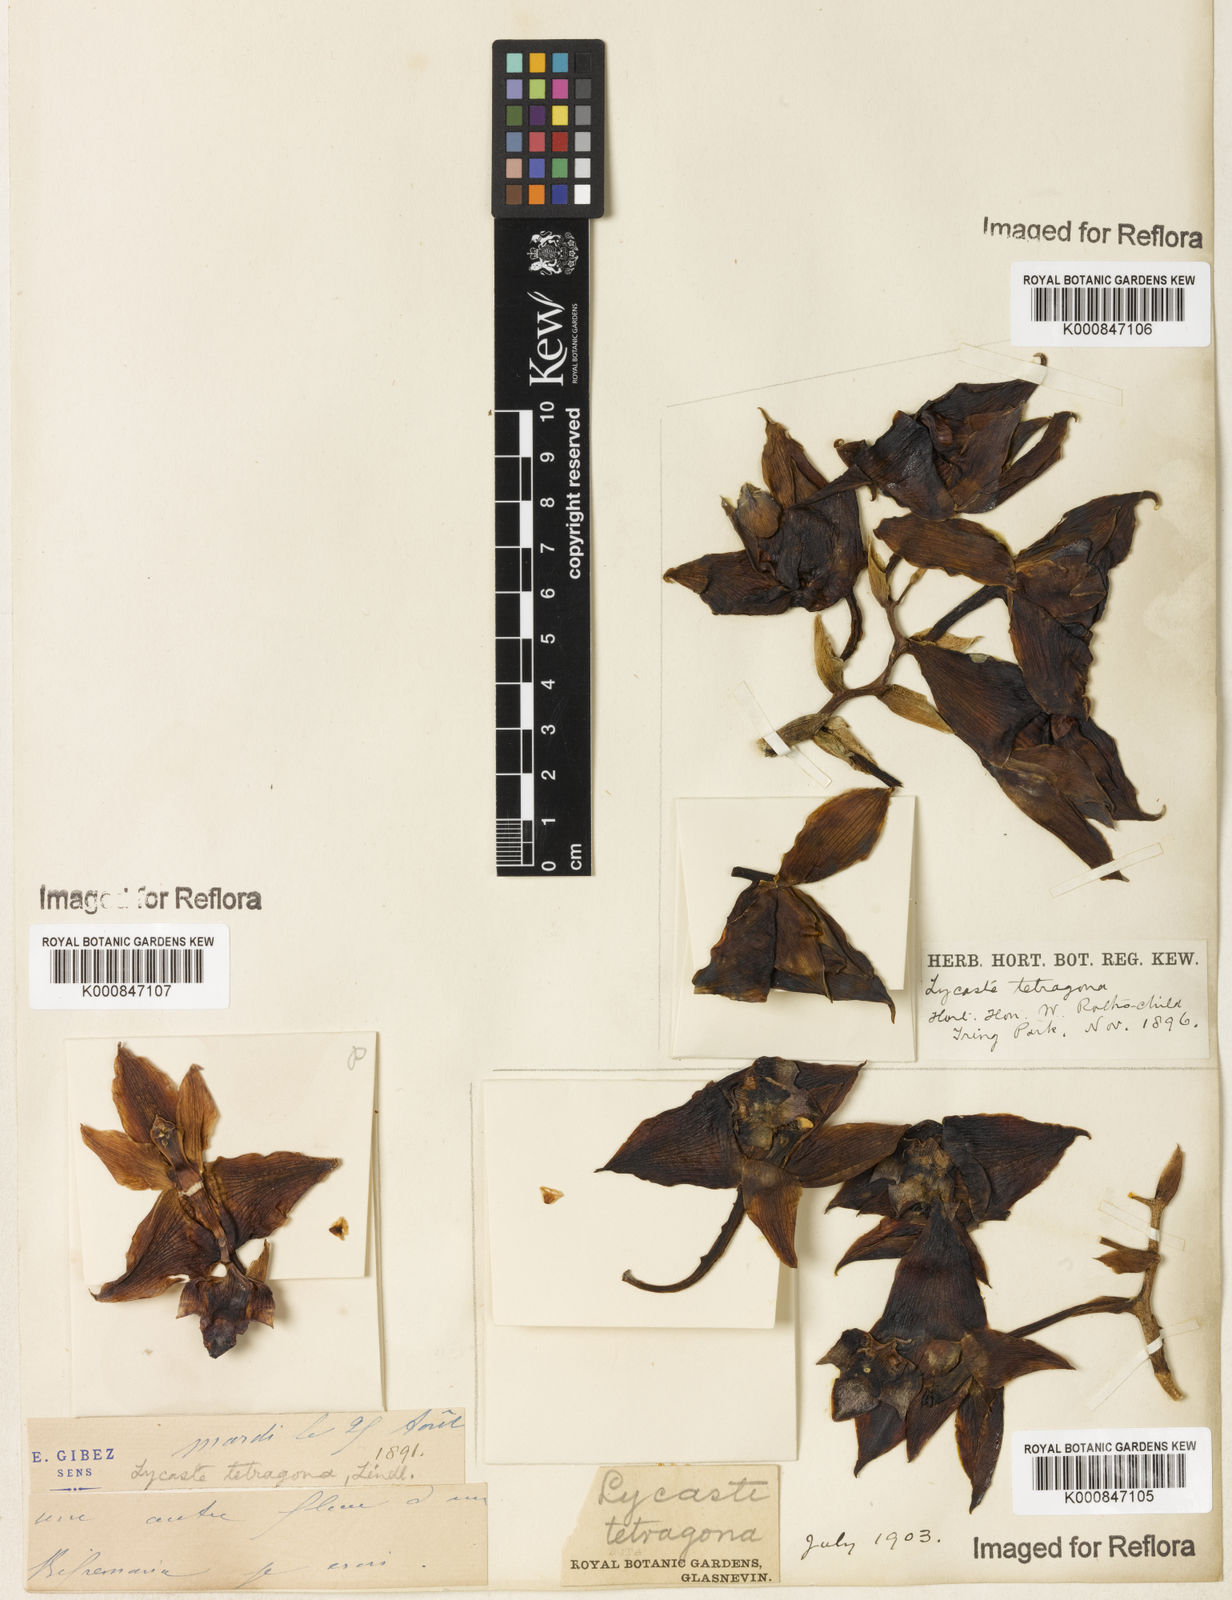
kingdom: Plantae
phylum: Tracheophyta
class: Liliopsida
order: Asparagales
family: Orchidaceae
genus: Bifrenaria
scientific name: Bifrenaria tetragona
